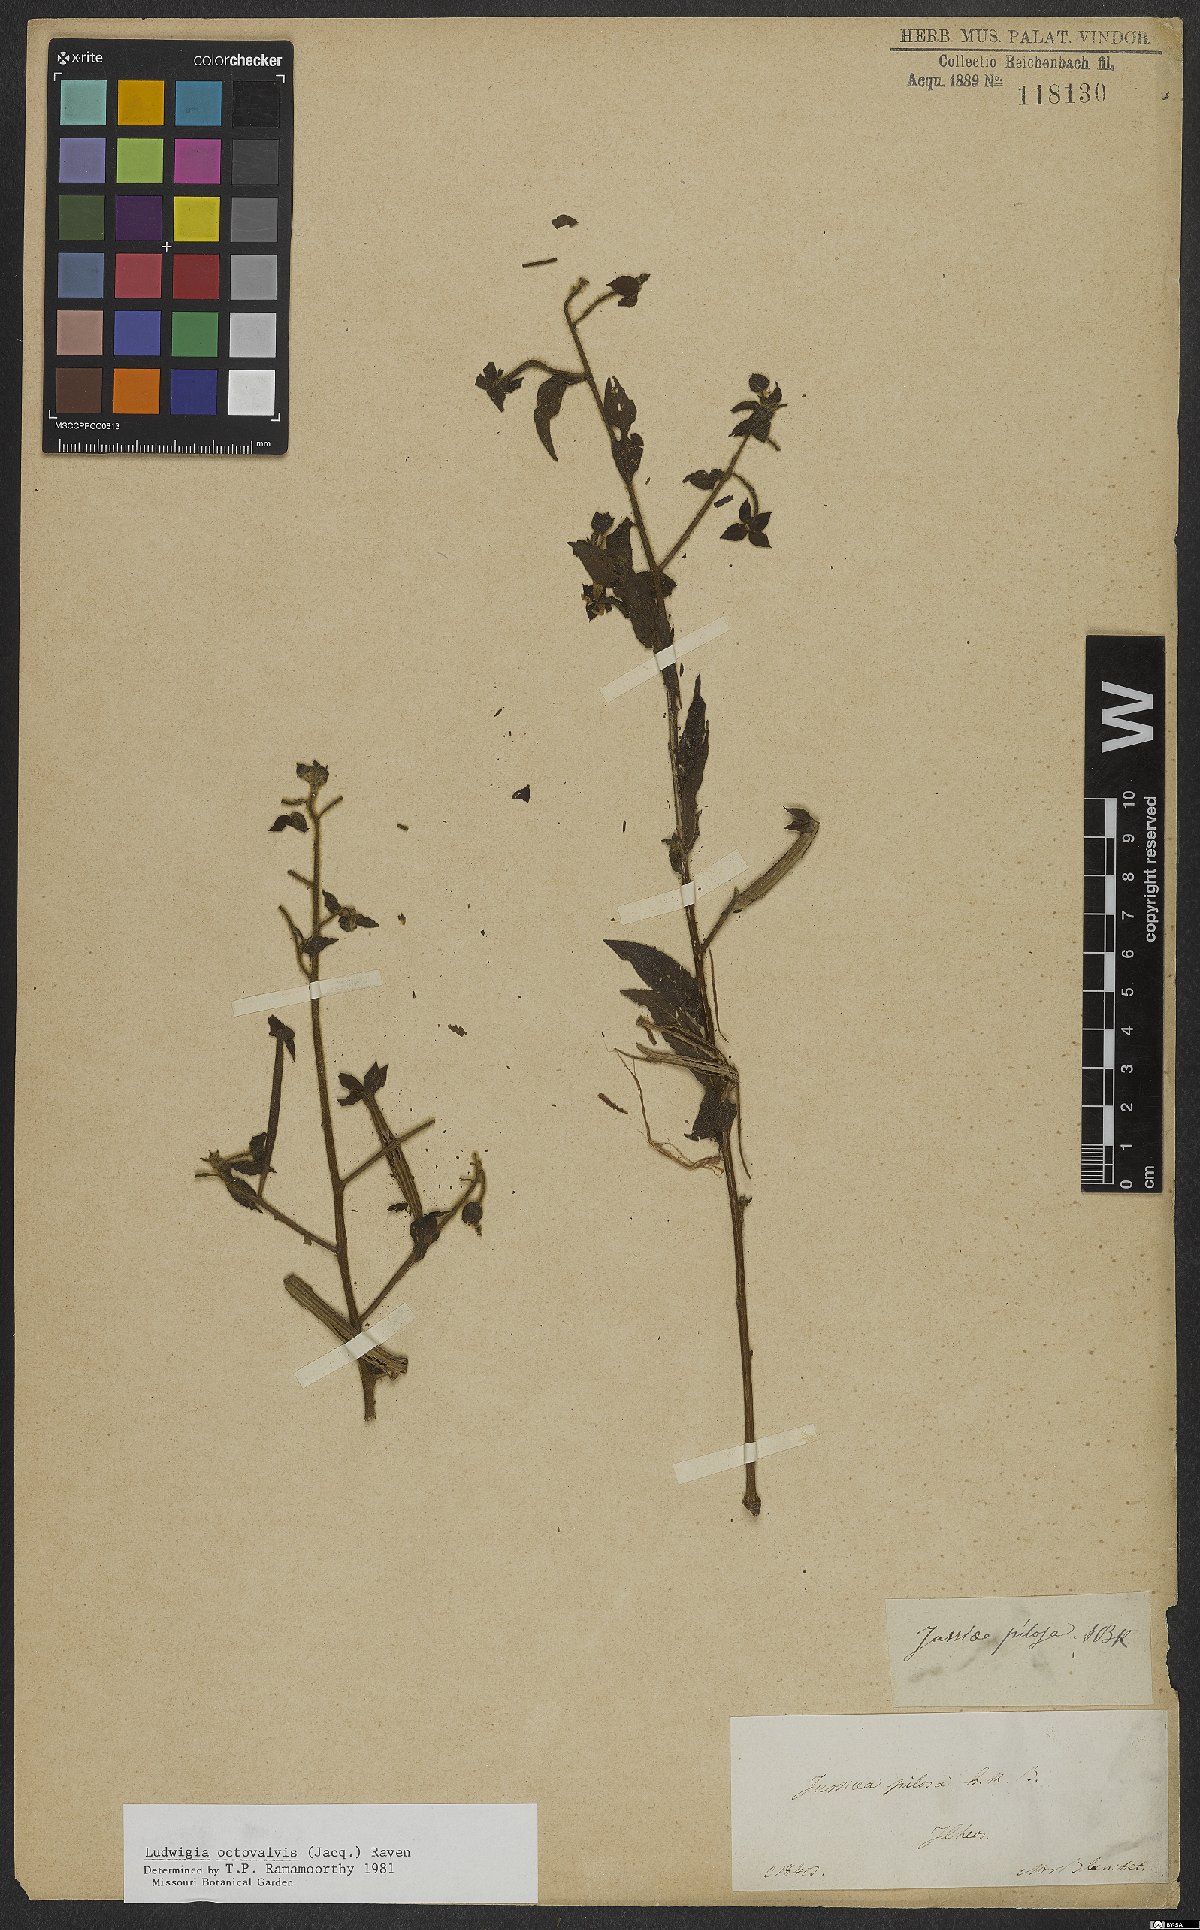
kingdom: Plantae
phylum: Tracheophyta
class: Magnoliopsida
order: Myrtales
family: Onagraceae
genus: Ludwigia
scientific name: Ludwigia octovalvis
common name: Water-primrose
